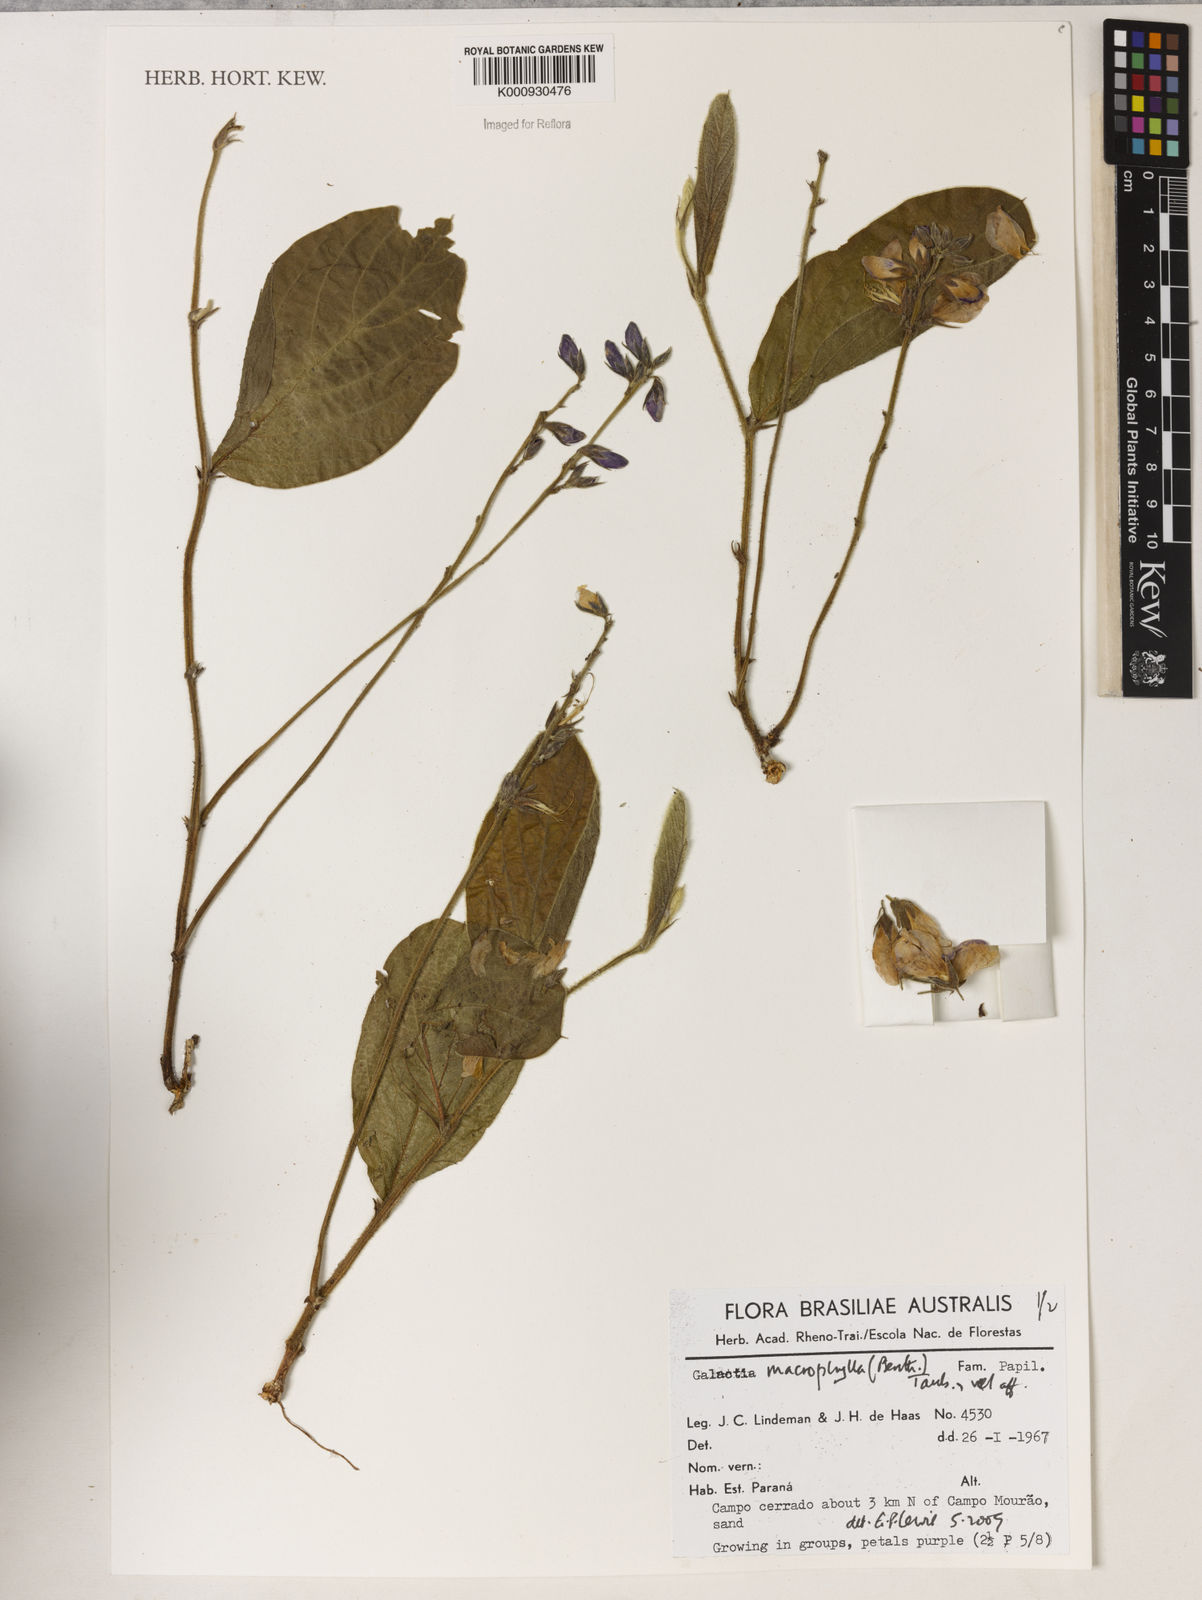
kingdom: Plantae
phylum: Tracheophyta
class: Magnoliopsida
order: Fabales
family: Fabaceae
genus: Cerradicola
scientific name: Cerradicola boavista
